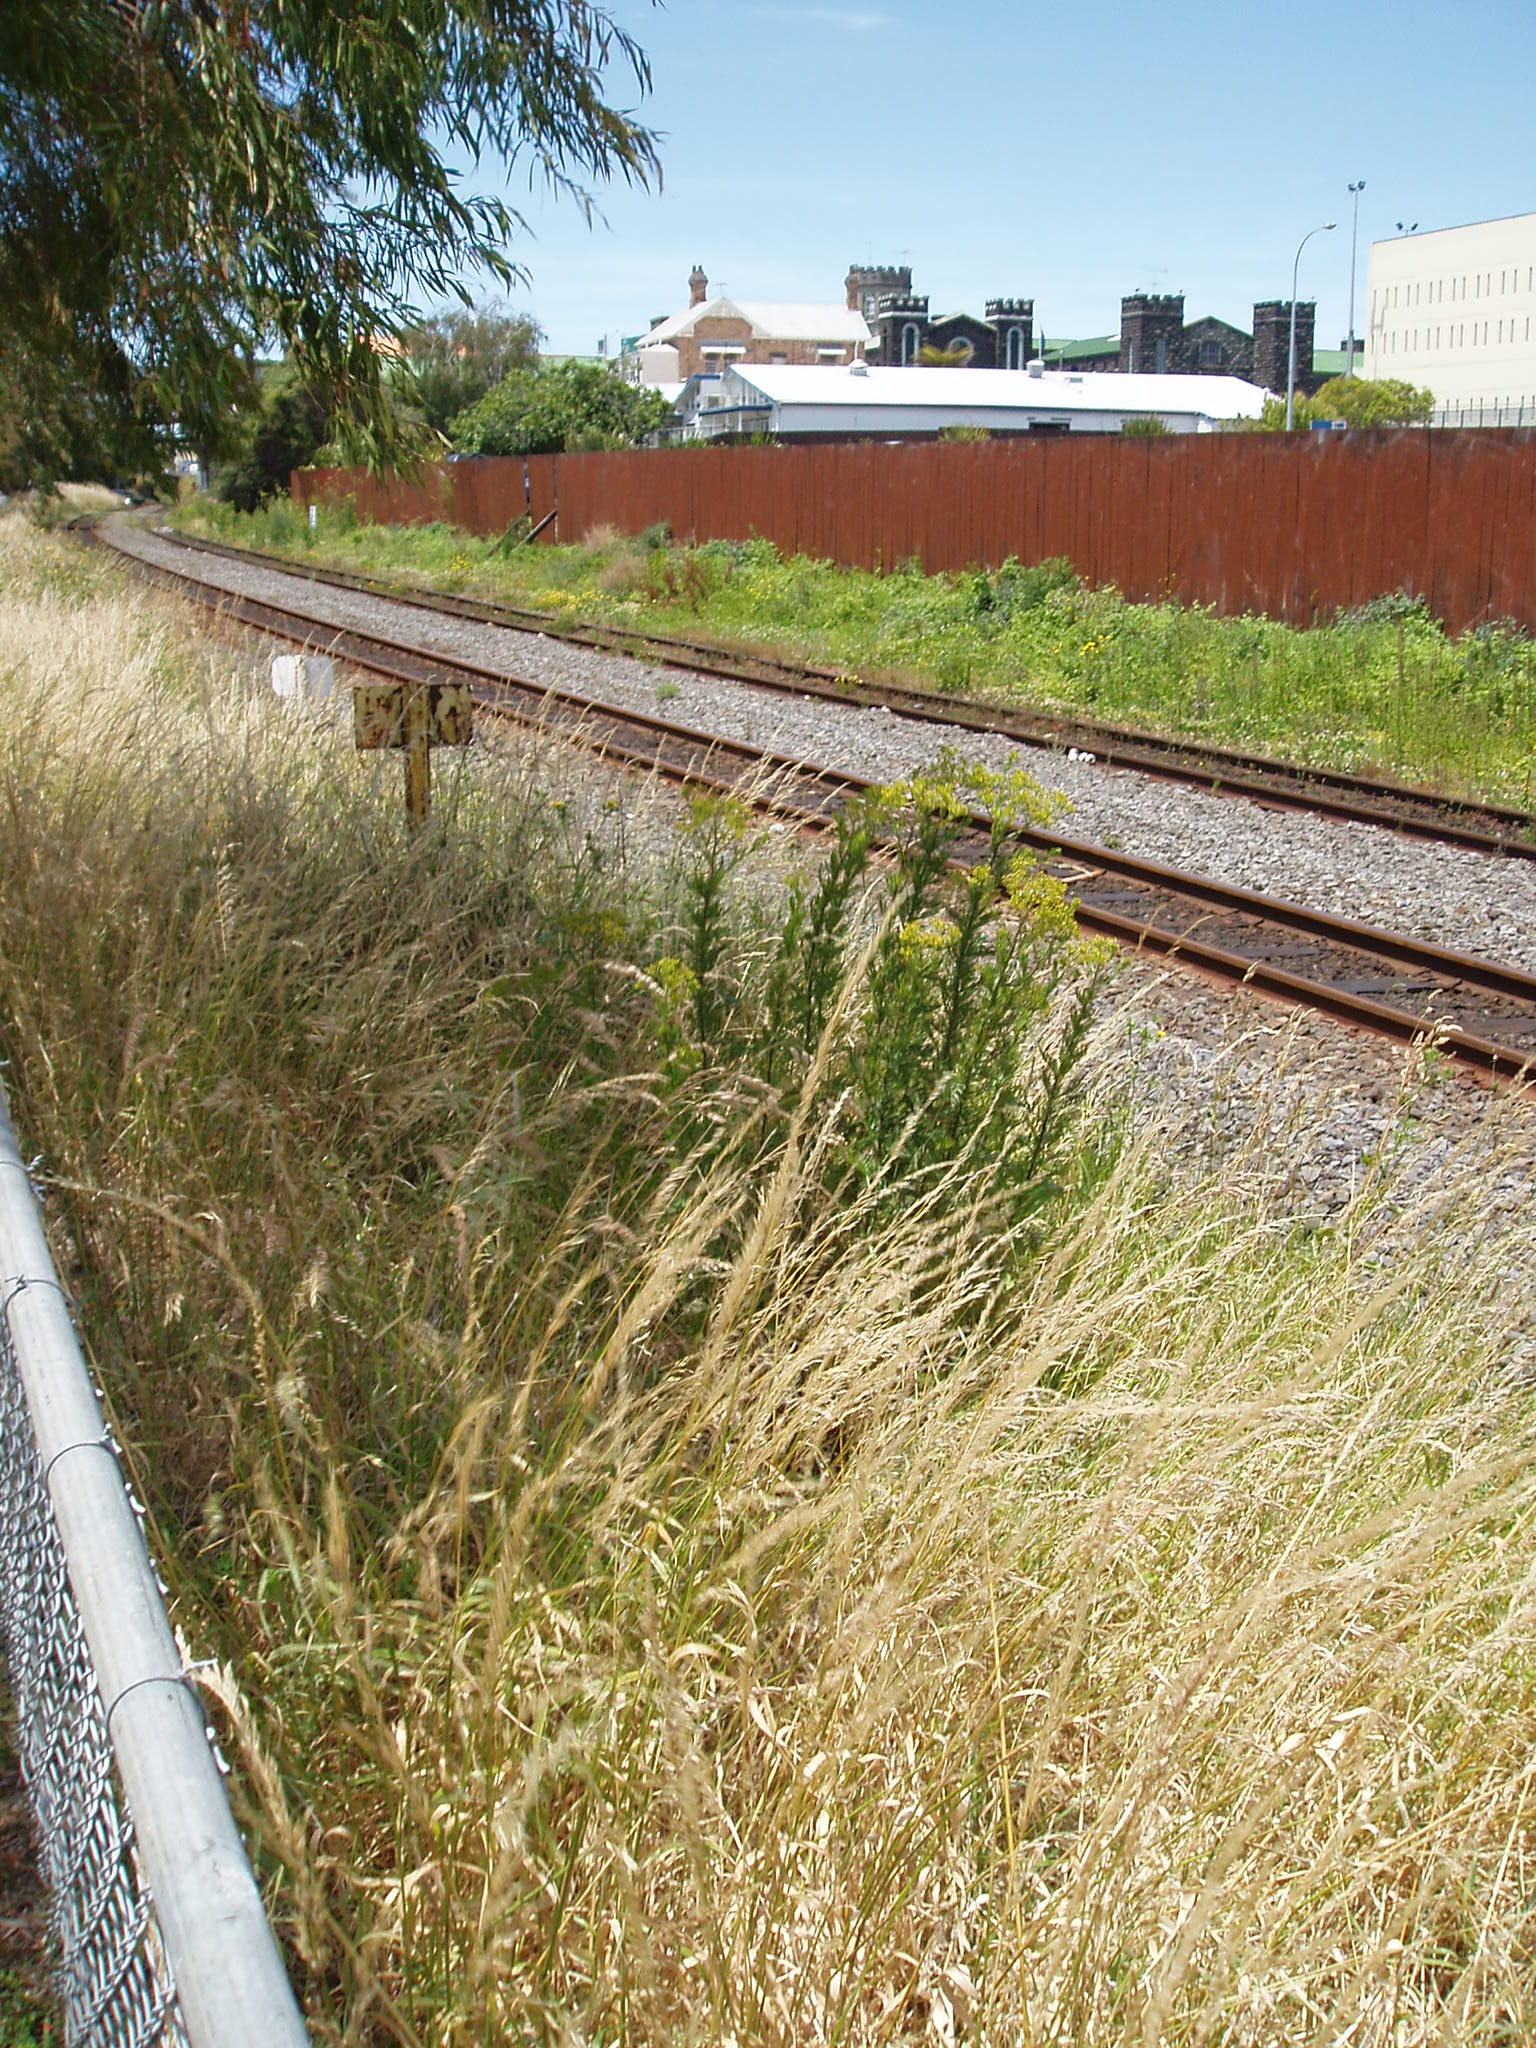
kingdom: Plantae
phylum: Tracheophyta
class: Magnoliopsida
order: Asterales
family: Asteraceae
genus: Senecio
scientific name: Senecio esleri
